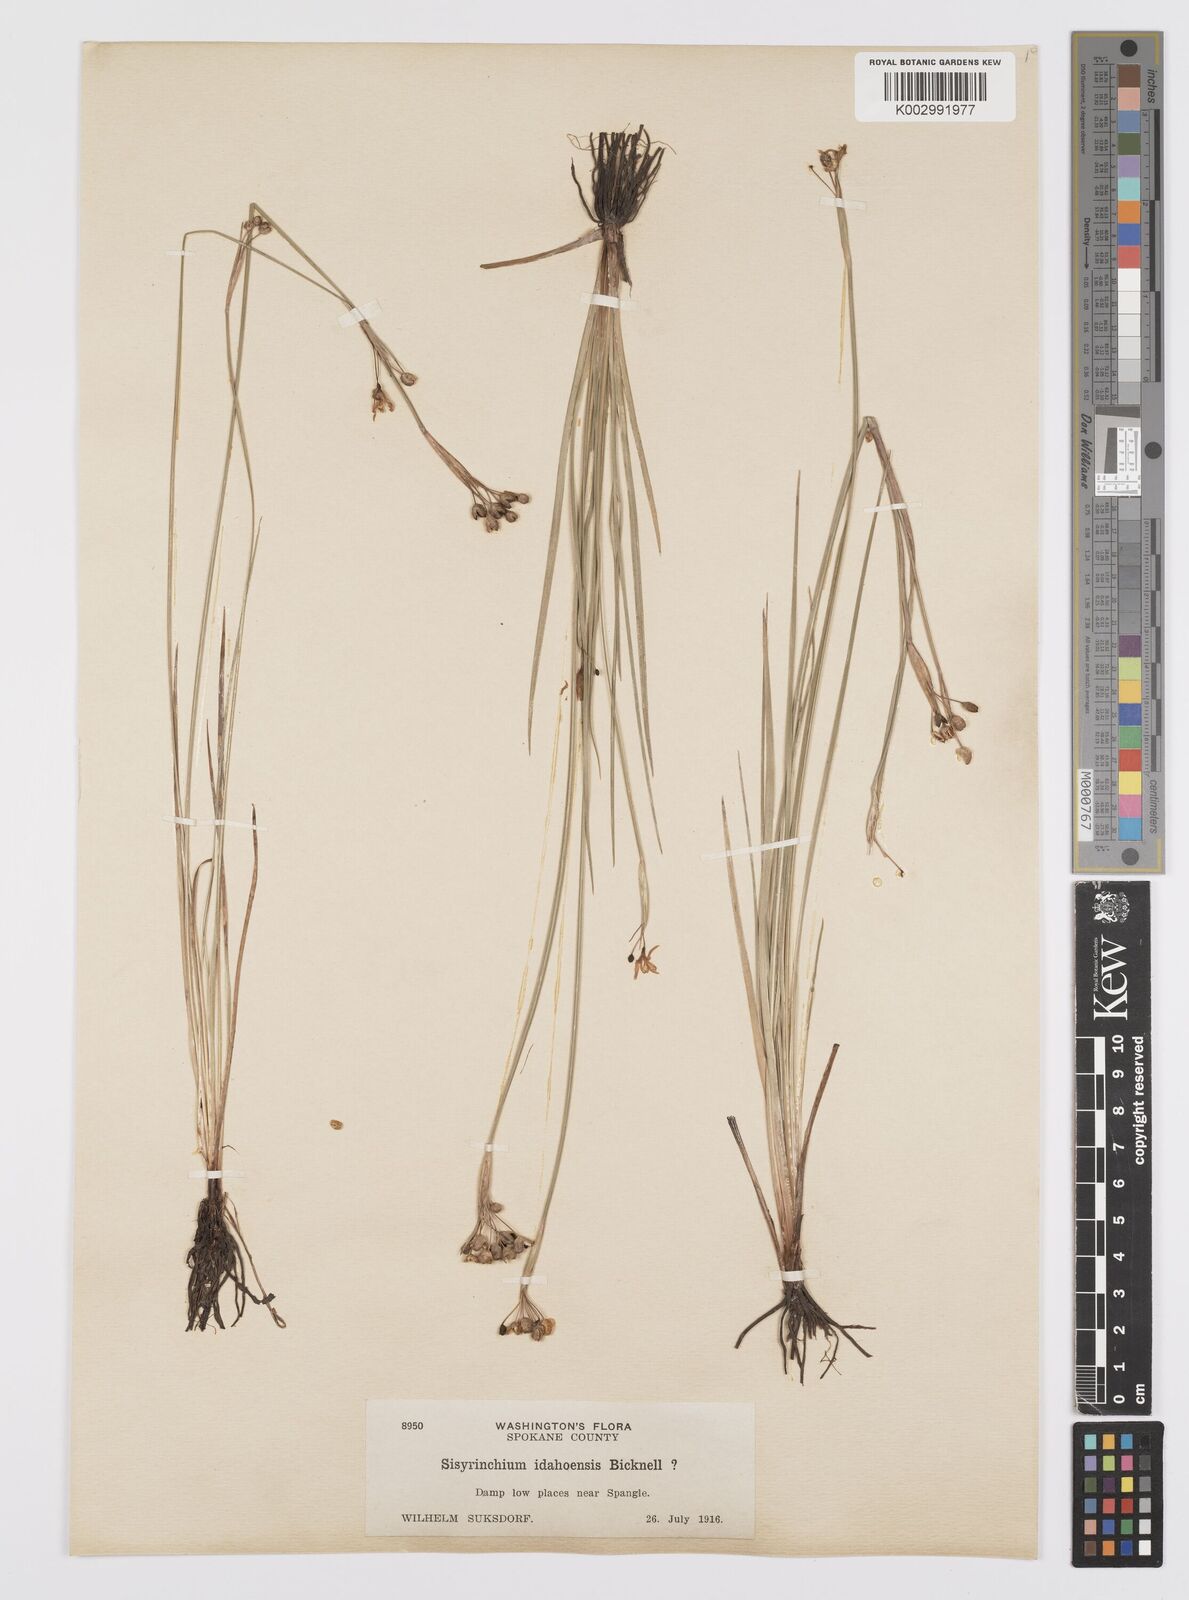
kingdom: Plantae
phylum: Tracheophyta
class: Liliopsida
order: Asparagales
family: Iridaceae
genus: Sisyrinchium
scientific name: Sisyrinchium idahoense
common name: Idaho blue-eyed-grass
